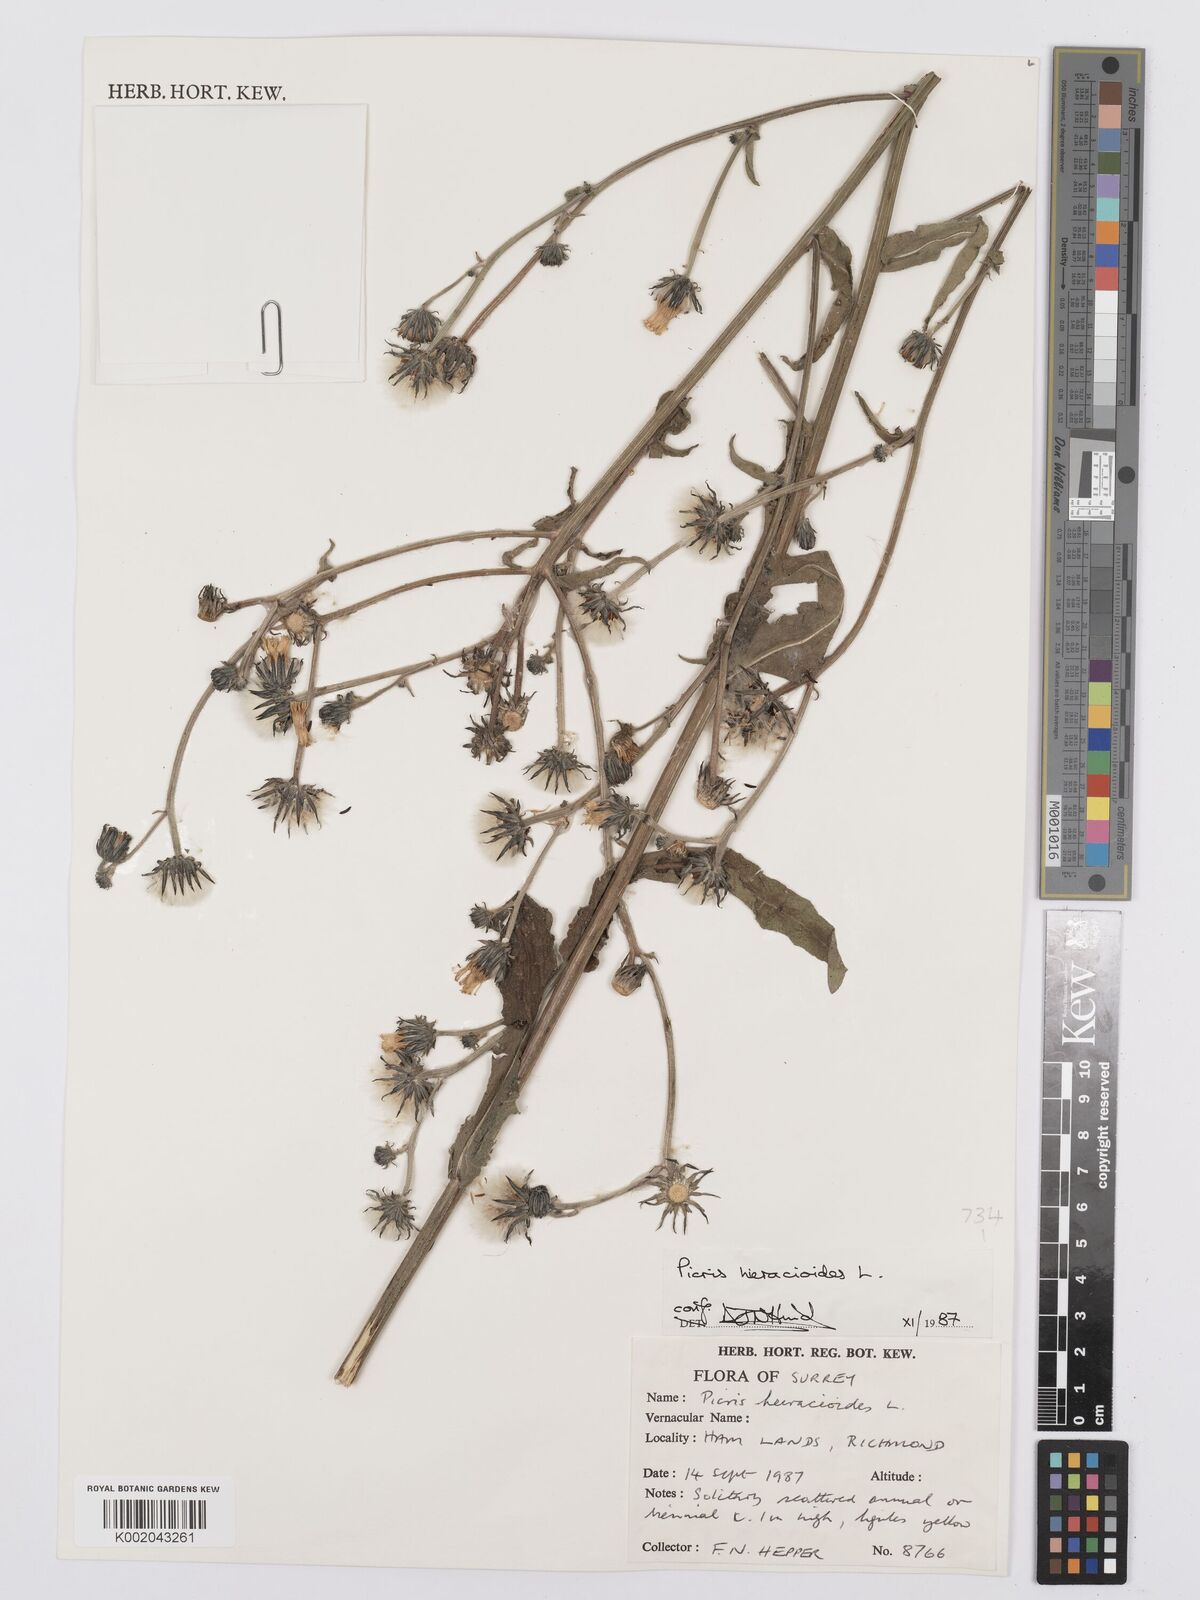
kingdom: Plantae
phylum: Tracheophyta
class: Magnoliopsida
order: Asterales
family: Asteraceae
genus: Picris
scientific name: Picris hieracioides
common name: Hawkweed oxtongue
